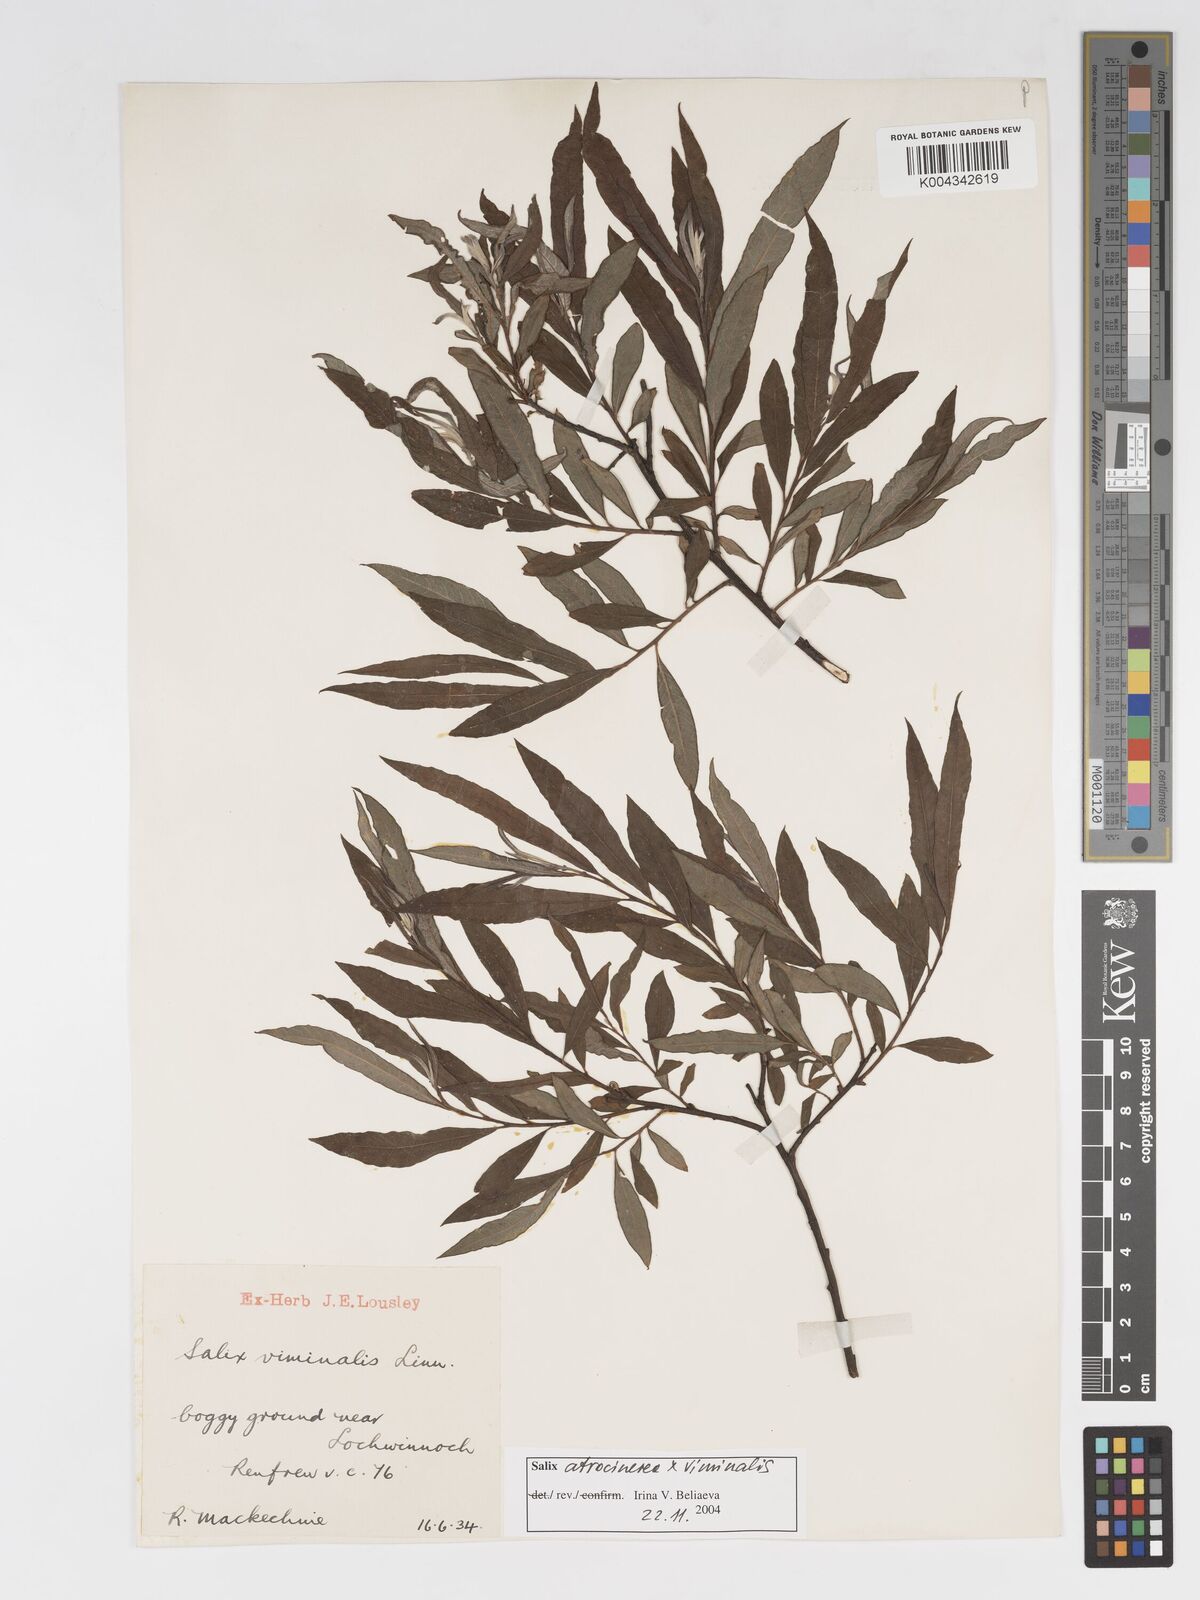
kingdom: Plantae
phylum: Tracheophyta
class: Magnoliopsida
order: Malpighiales
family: Salicaceae
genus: Salix
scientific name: Salix atrocinerea
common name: Rusty willow
